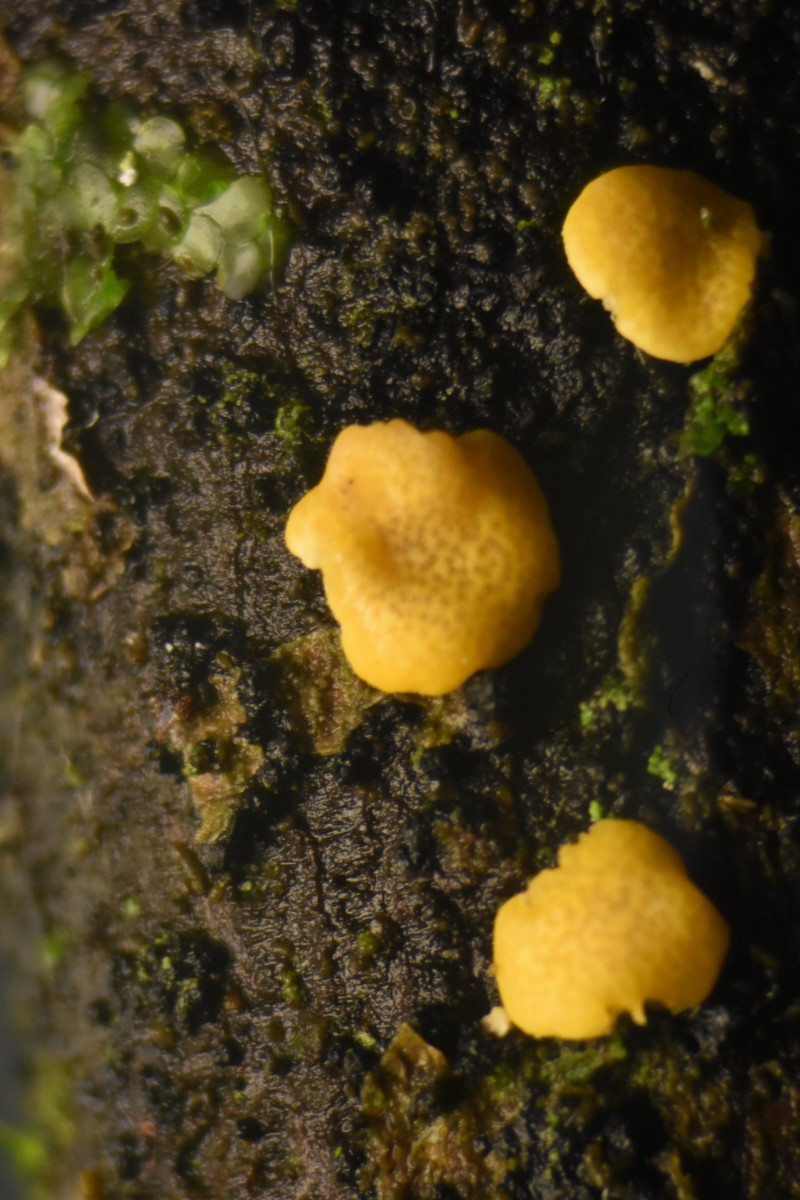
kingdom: Fungi
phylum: Ascomycota
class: Sordariomycetes
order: Hypocreales
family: Hypocreaceae
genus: Trichoderma
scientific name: Trichoderma britdaniae
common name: pilemose-kødkerne
